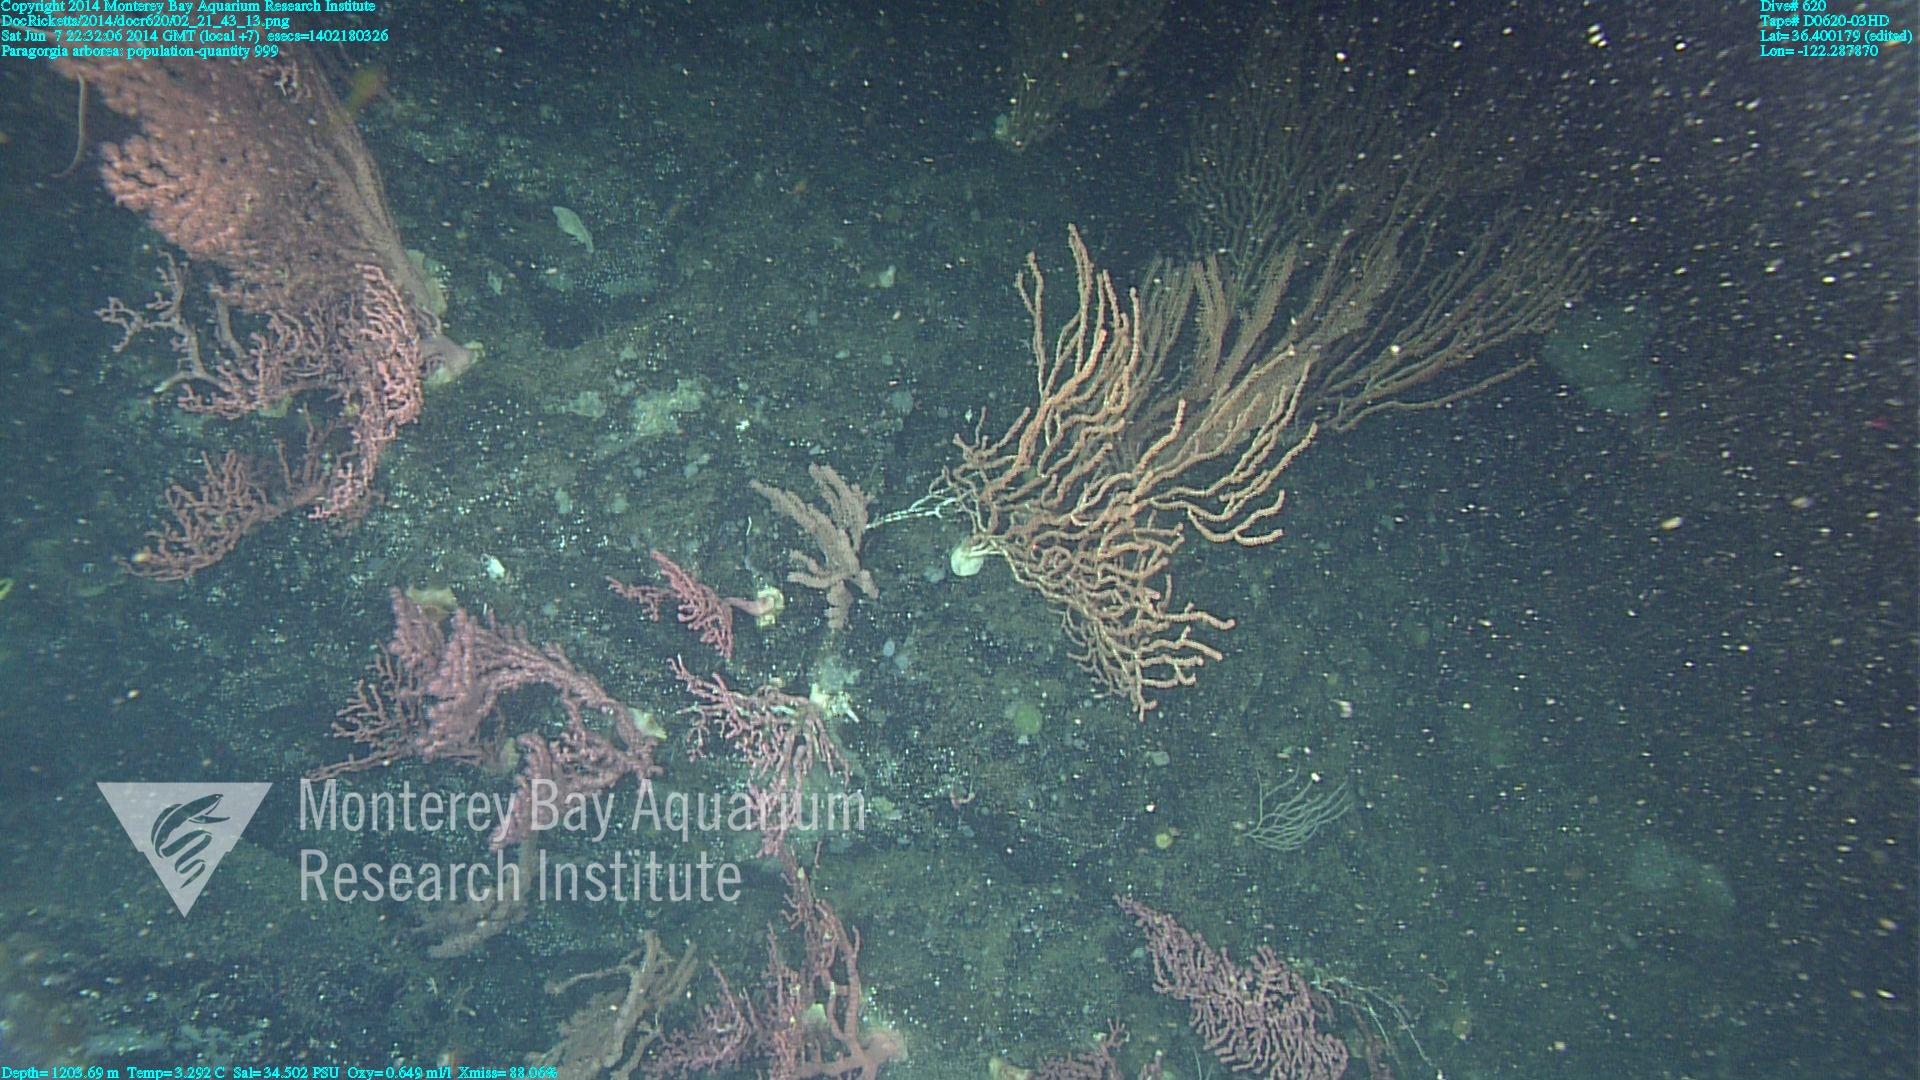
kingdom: Animalia
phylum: Cnidaria
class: Anthozoa
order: Scleralcyonacea
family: Coralliidae
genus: Paragorgia
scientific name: Paragorgia arborea
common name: Bubble gum coral
